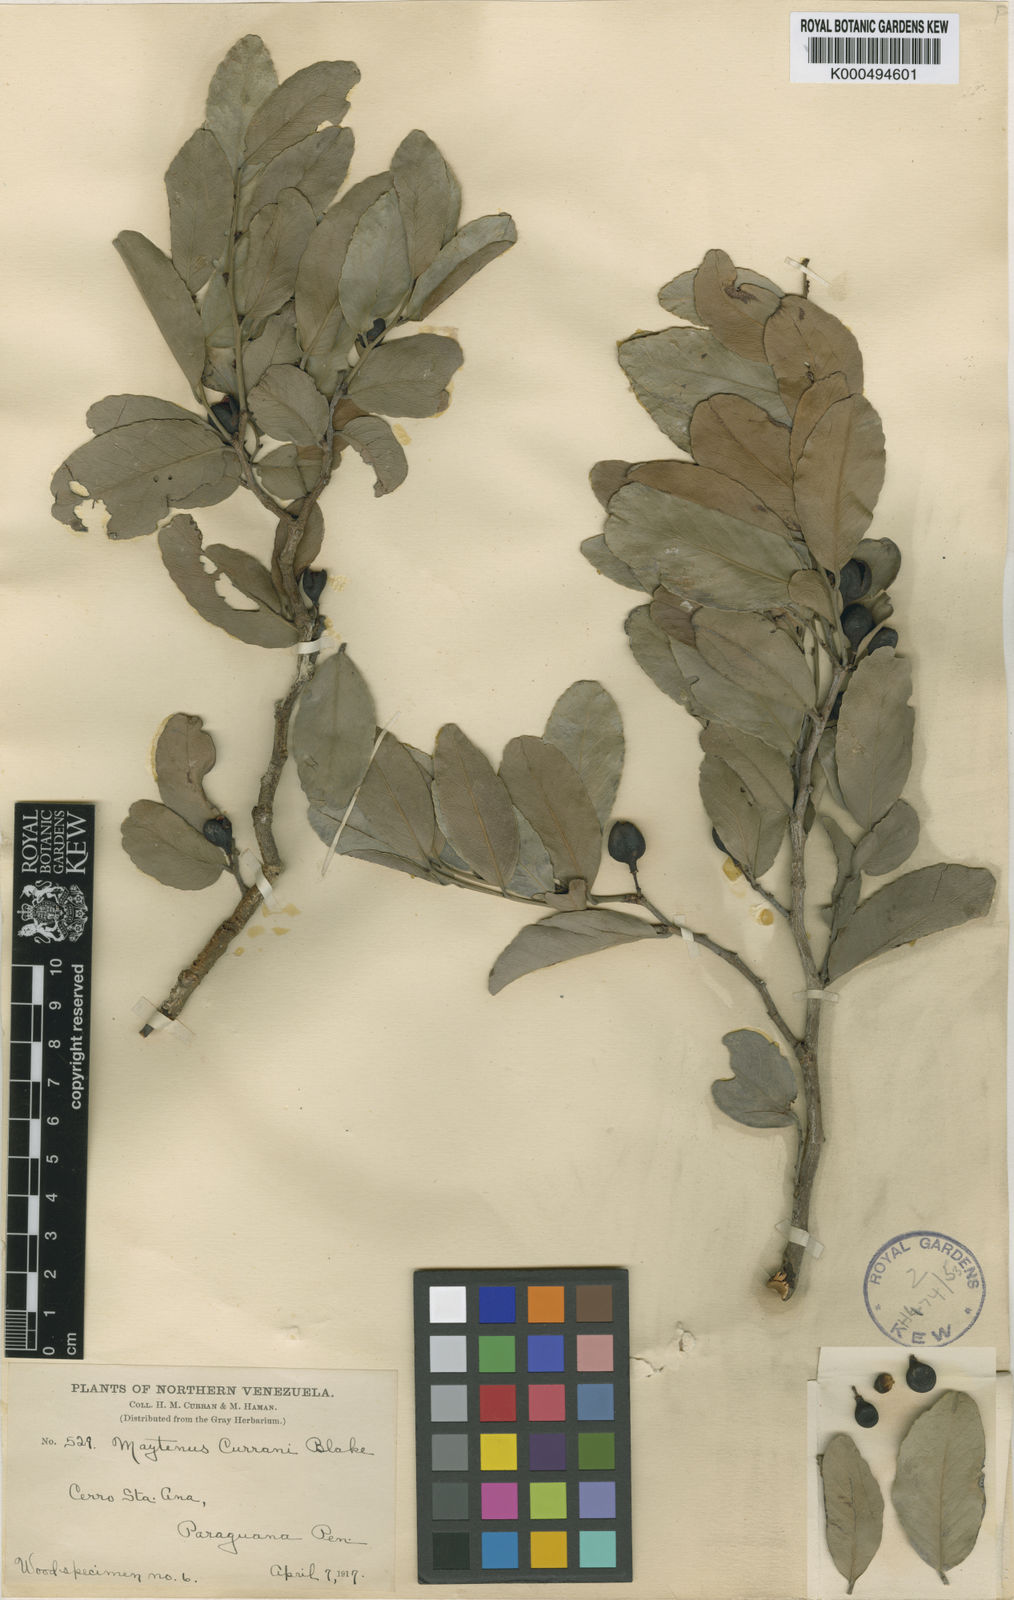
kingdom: Plantae
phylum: Tracheophyta
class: Magnoliopsida
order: Celastrales
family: Celastraceae
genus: Maytenus
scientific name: Maytenus curranii
